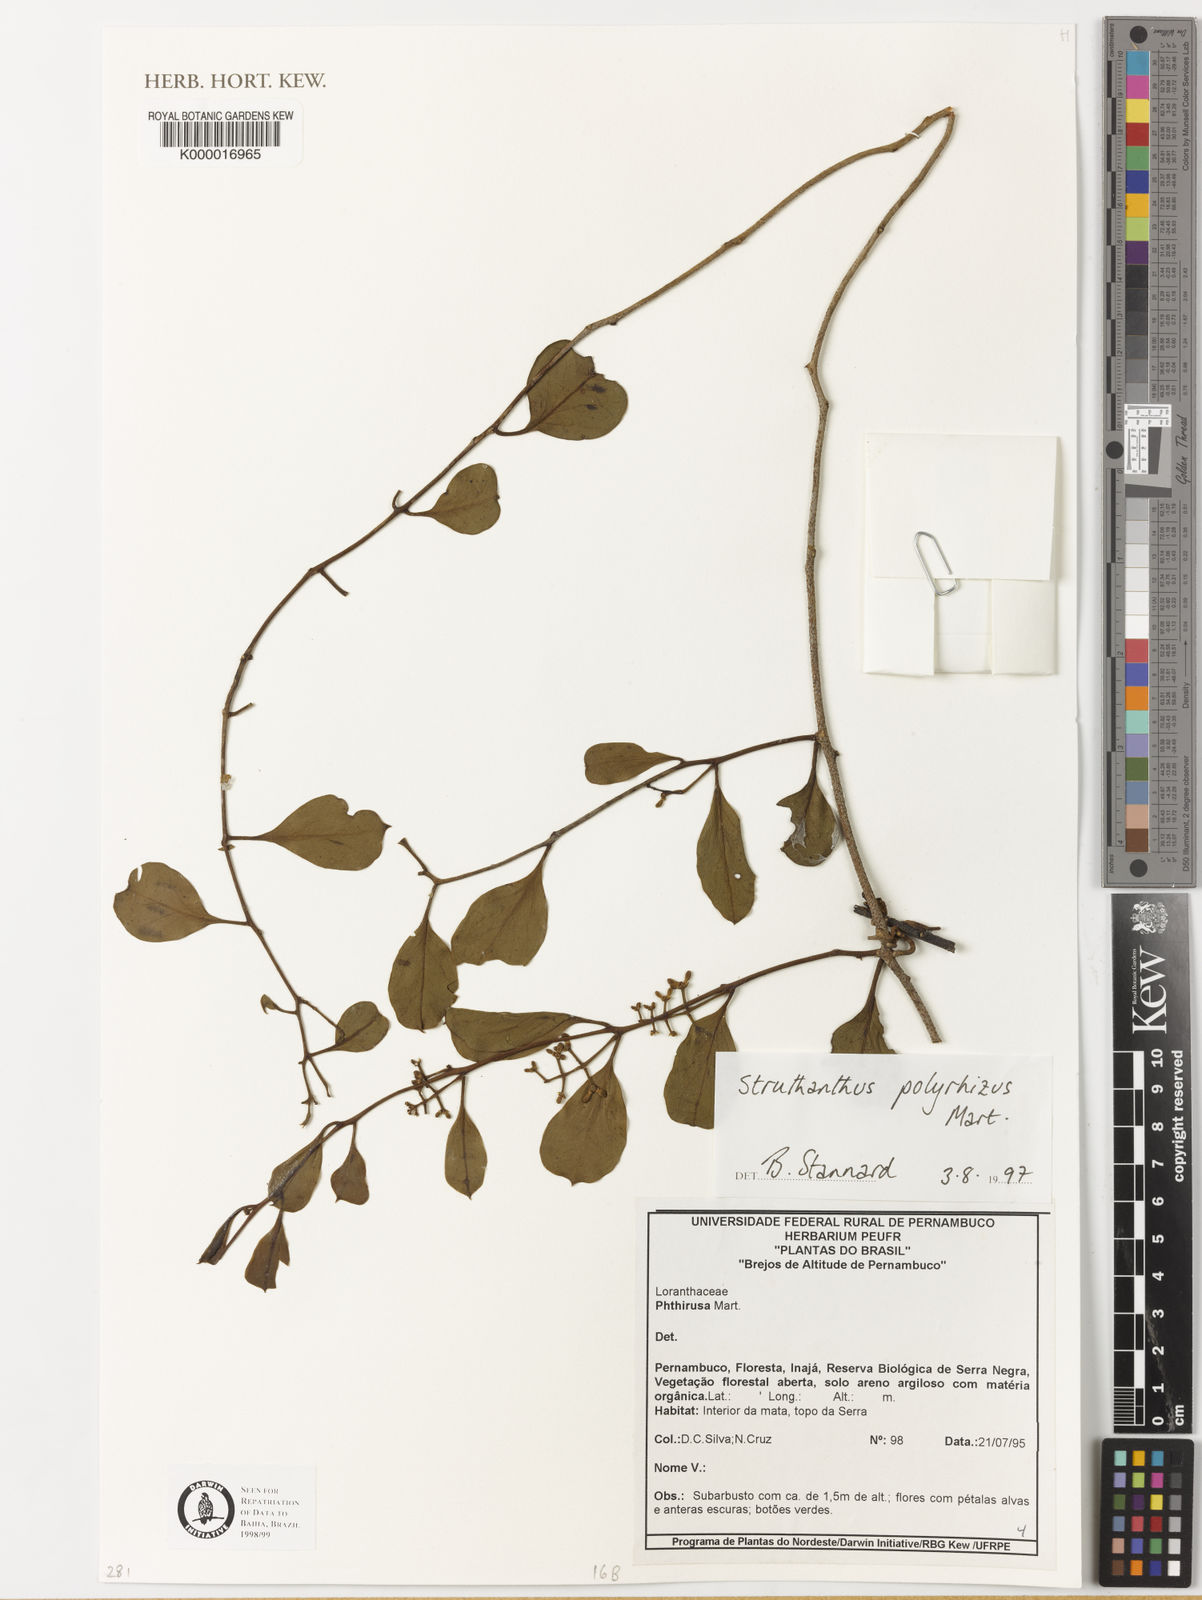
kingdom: Plantae
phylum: Tracheophyta
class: Magnoliopsida
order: Santalales
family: Loranthaceae
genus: Struthanthus
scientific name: Struthanthus retusus
